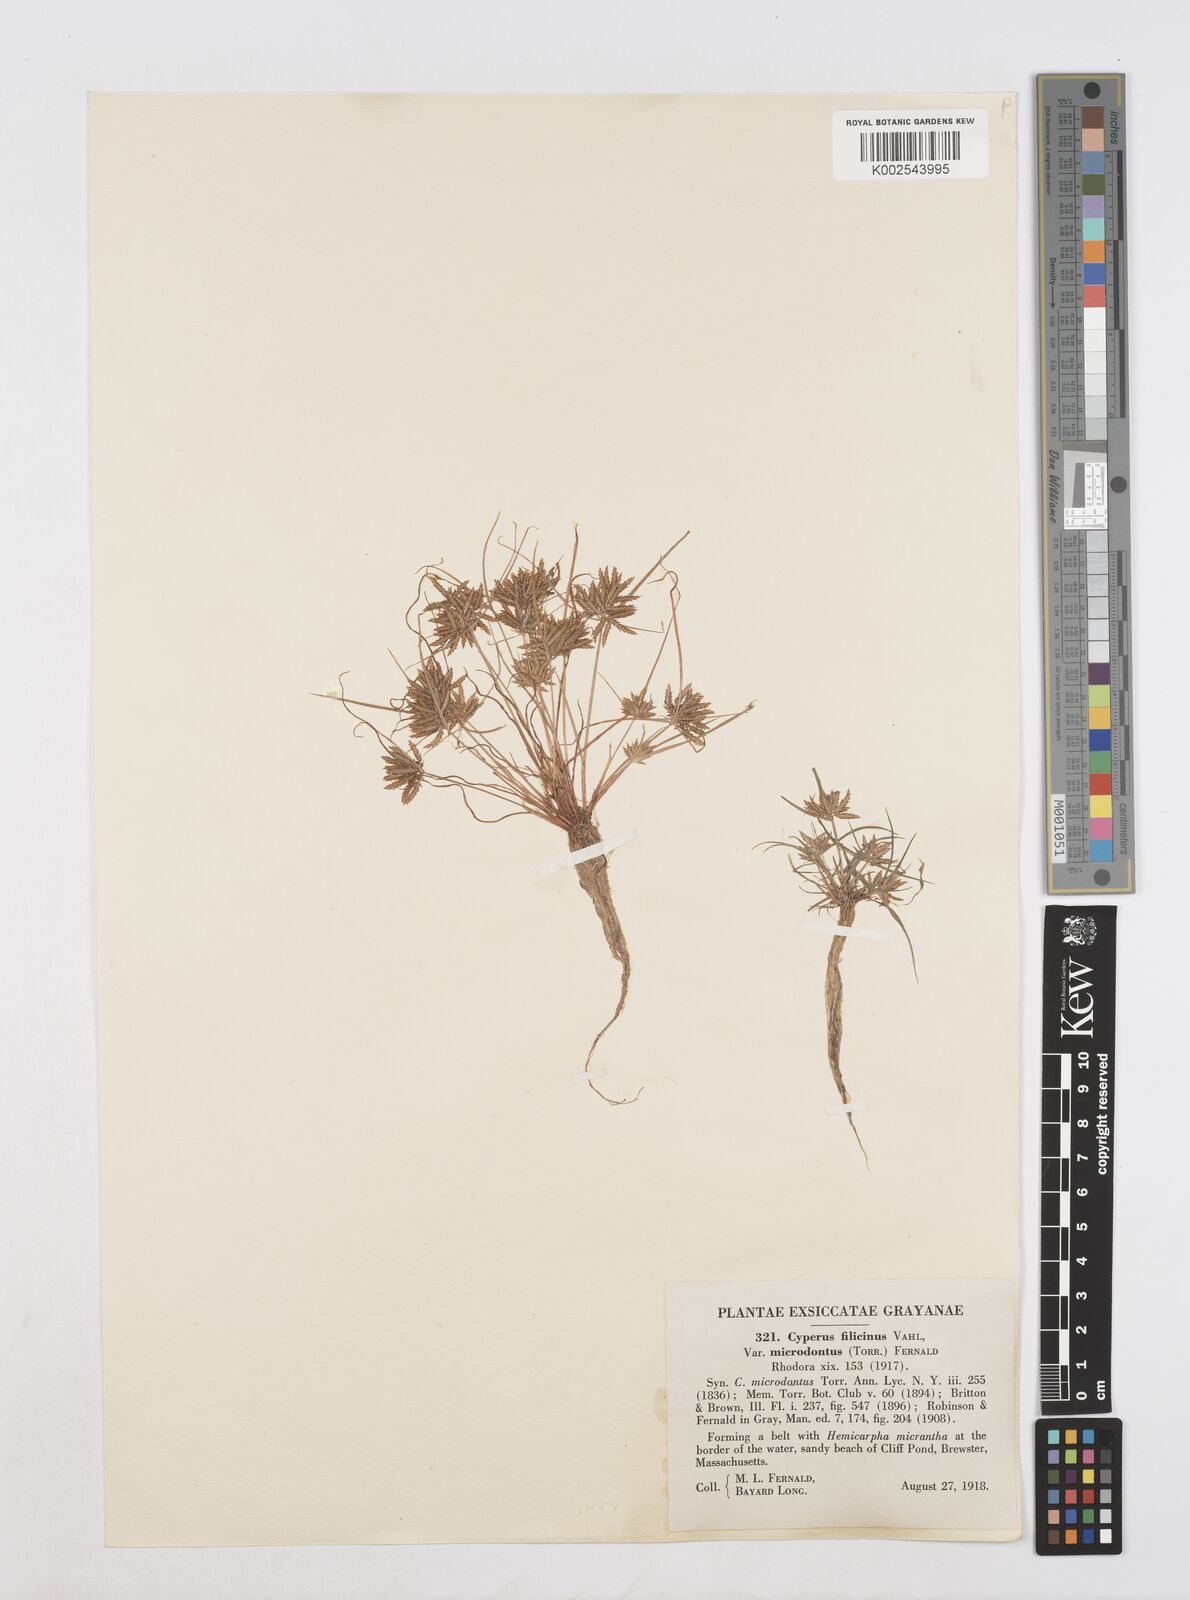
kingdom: Plantae
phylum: Tracheophyta
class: Liliopsida
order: Poales
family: Cyperaceae
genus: Cyperus
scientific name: Cyperus polystachyos
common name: Bunchy flat sedge
